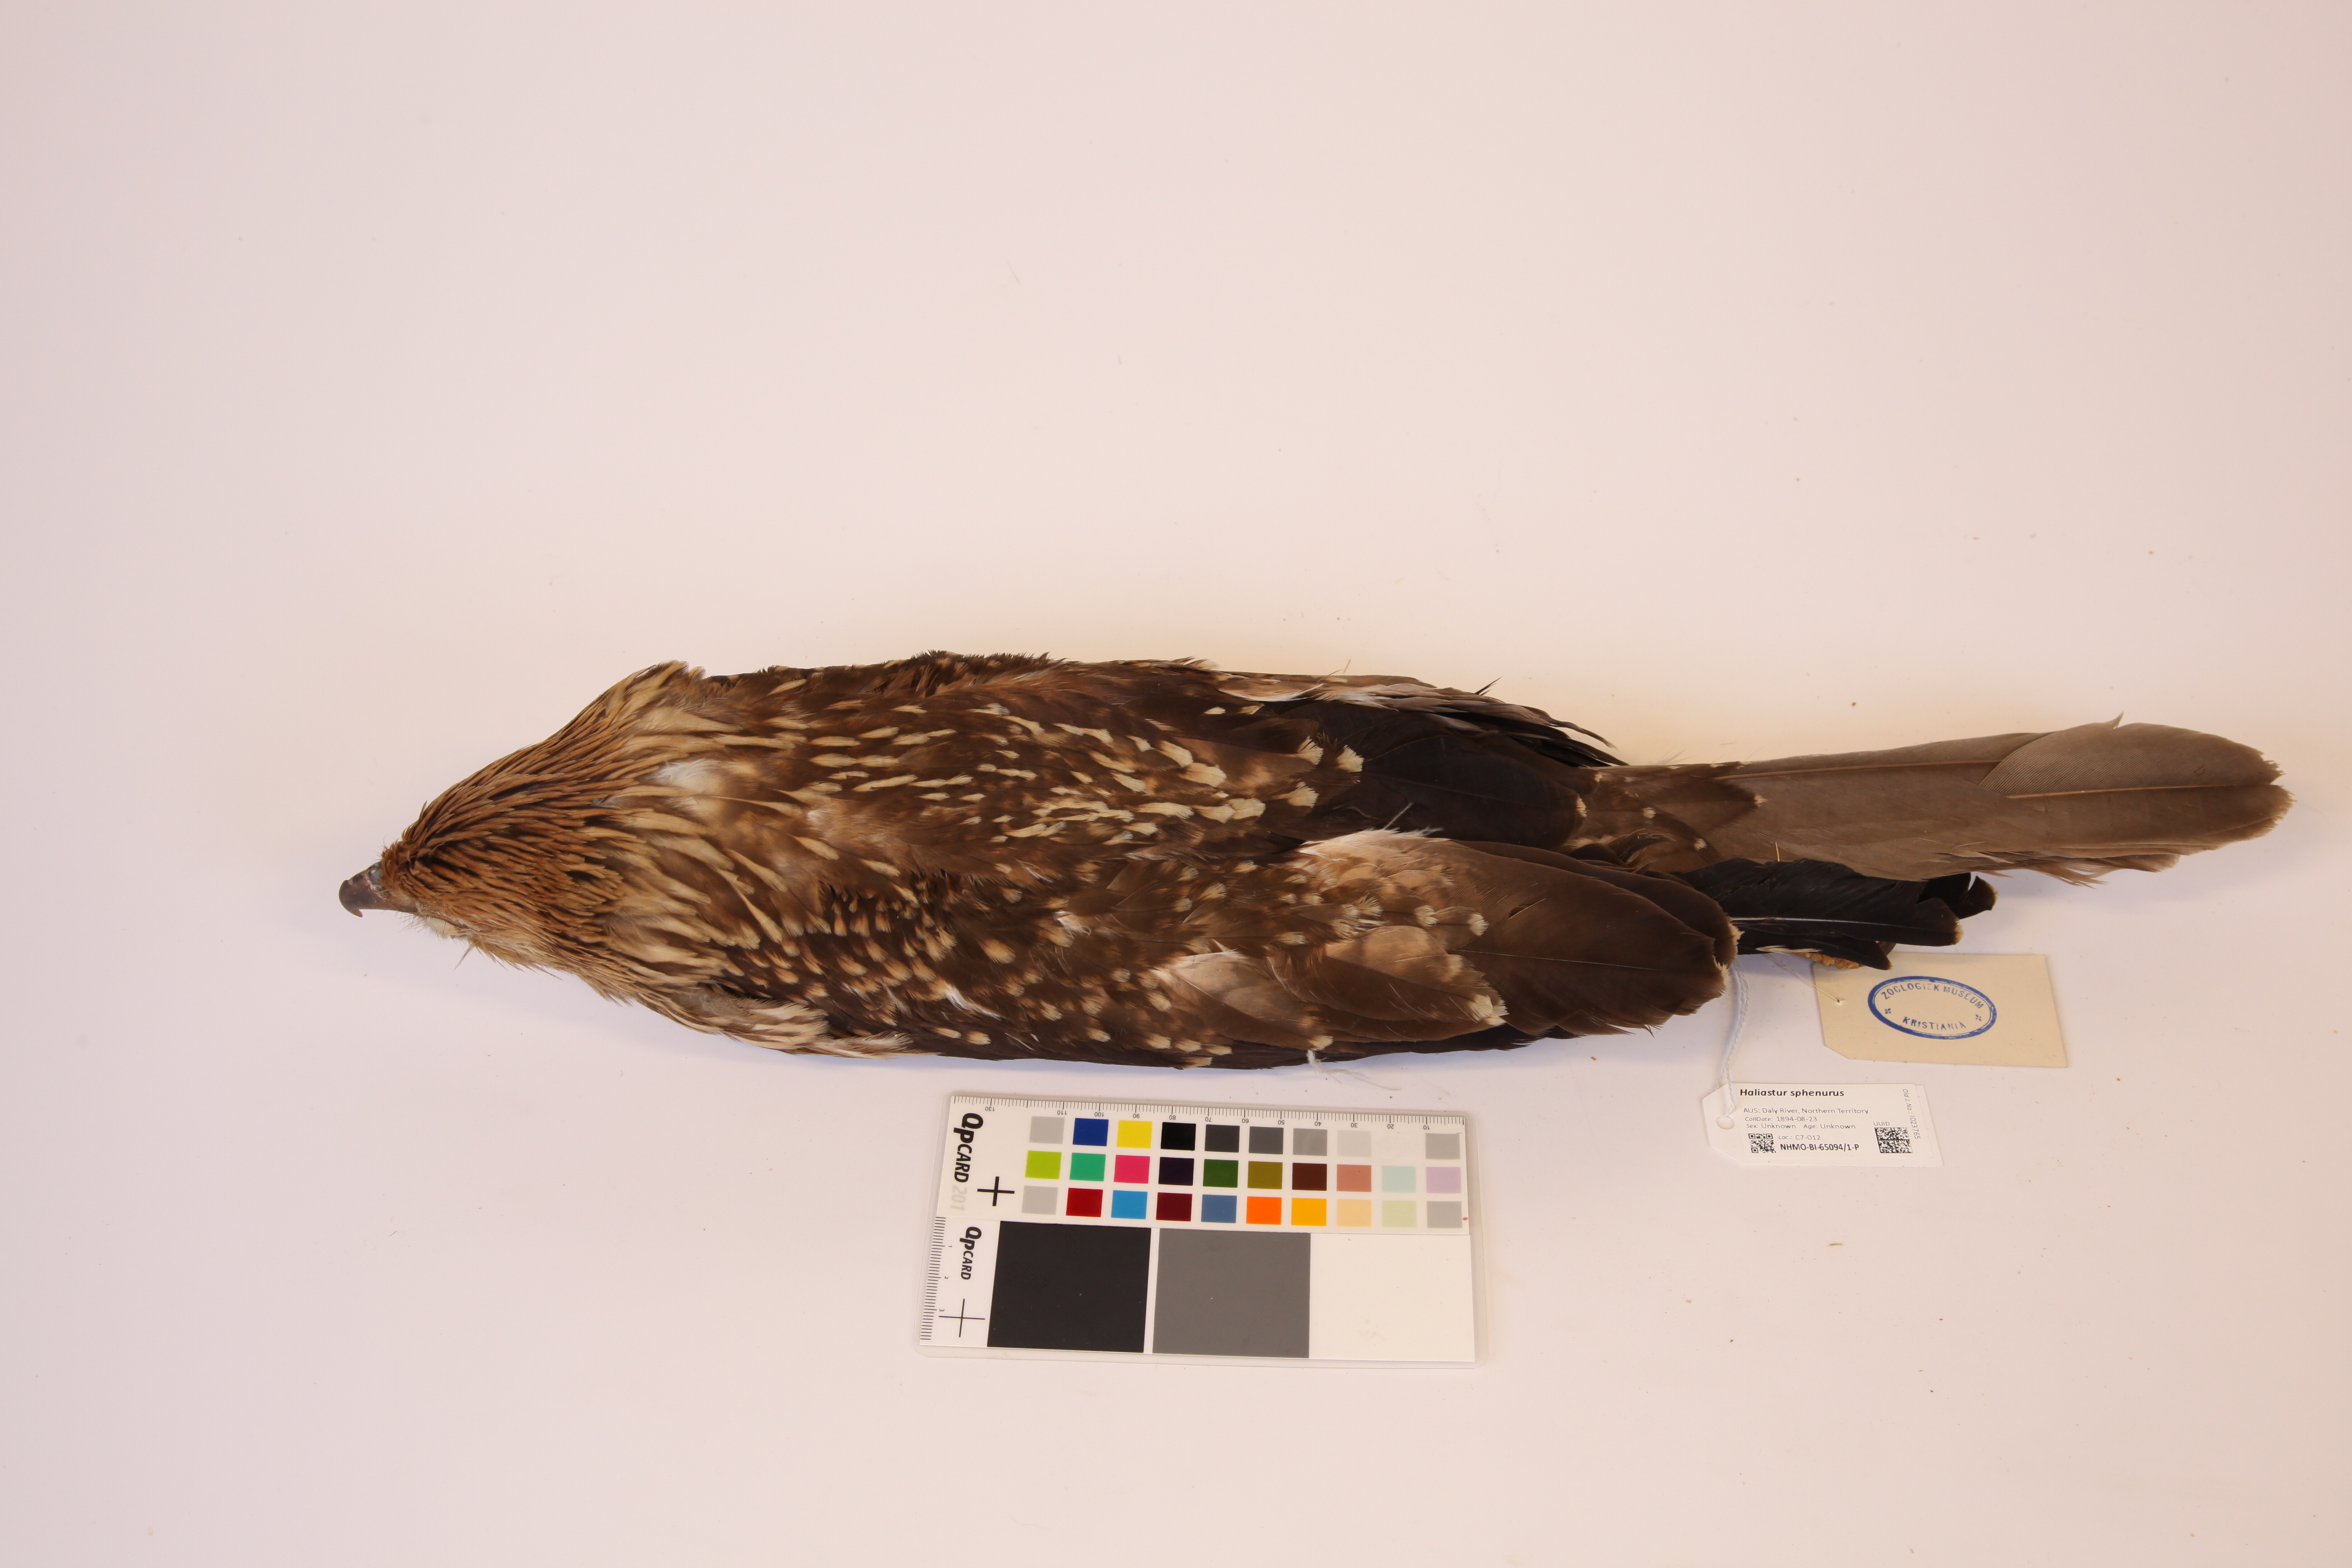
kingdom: Animalia
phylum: Chordata
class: Aves
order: Accipitriformes
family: Accipitridae
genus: Haliastur
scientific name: Haliastur sphenurus
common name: Whistling kite
